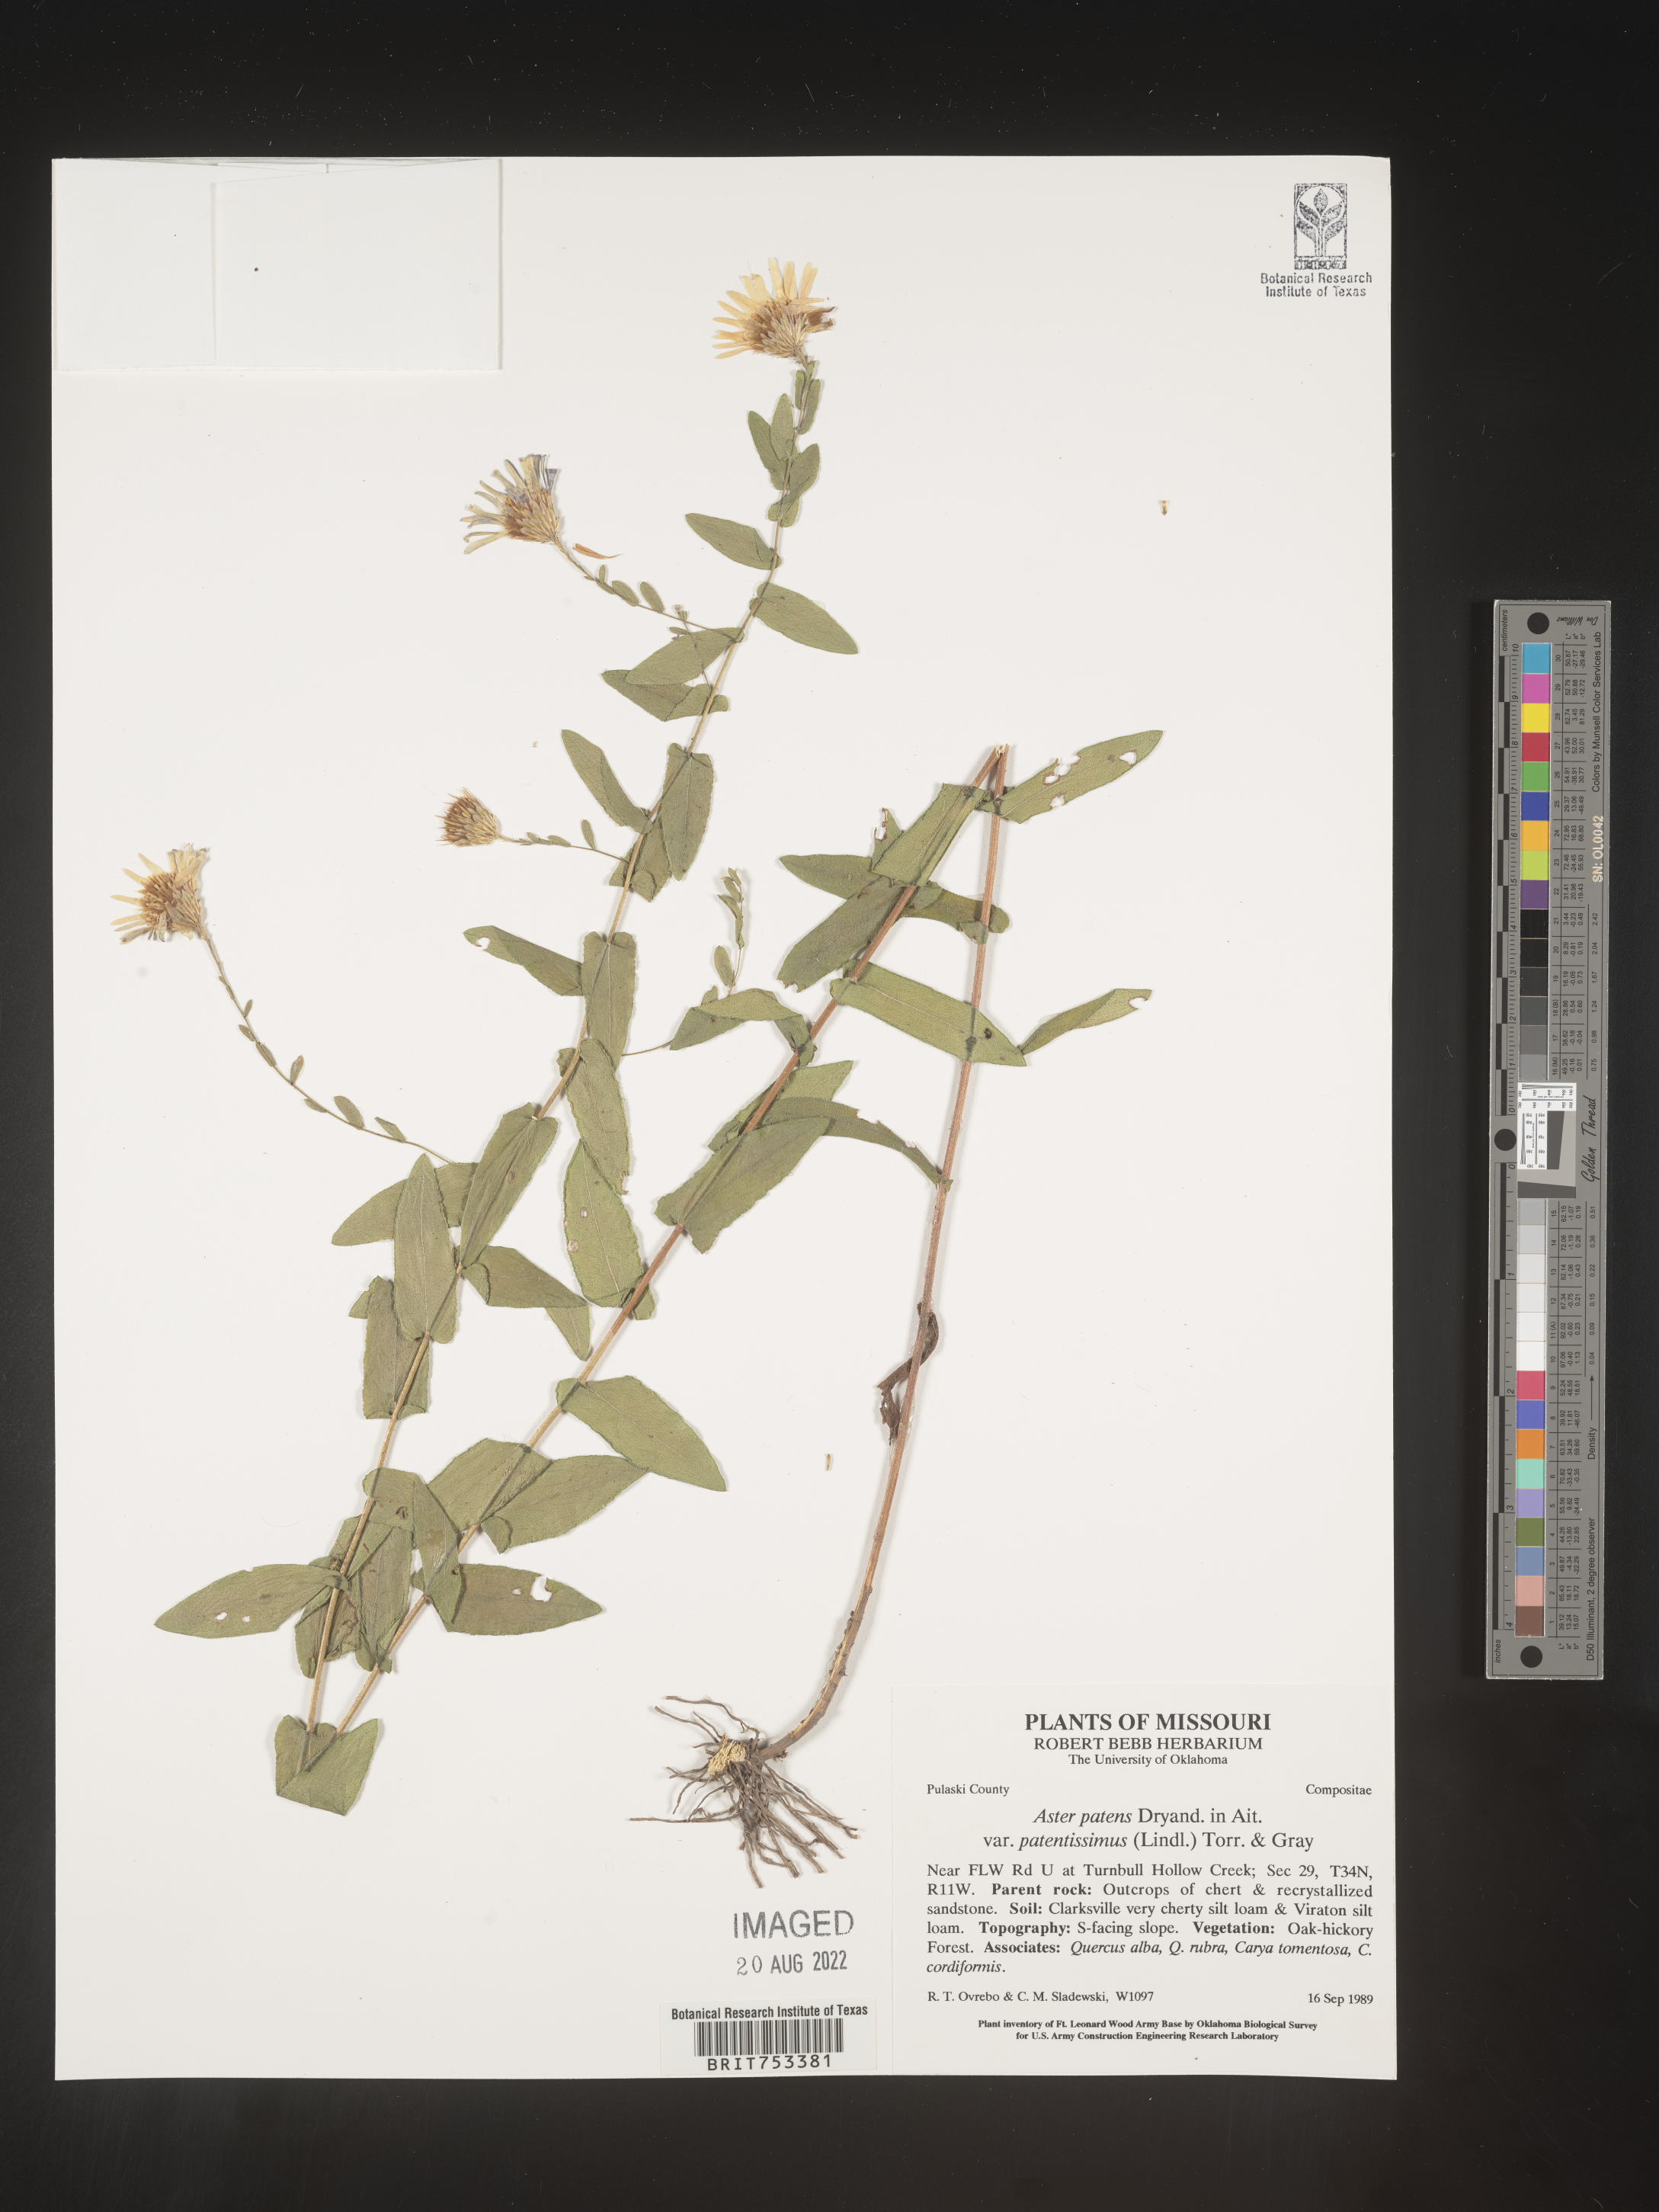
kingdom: Plantae
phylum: Tracheophyta
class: Magnoliopsida
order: Asterales
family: Asteraceae
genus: Symphyotrichum
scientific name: Symphyotrichum patens
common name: Late purple aster
